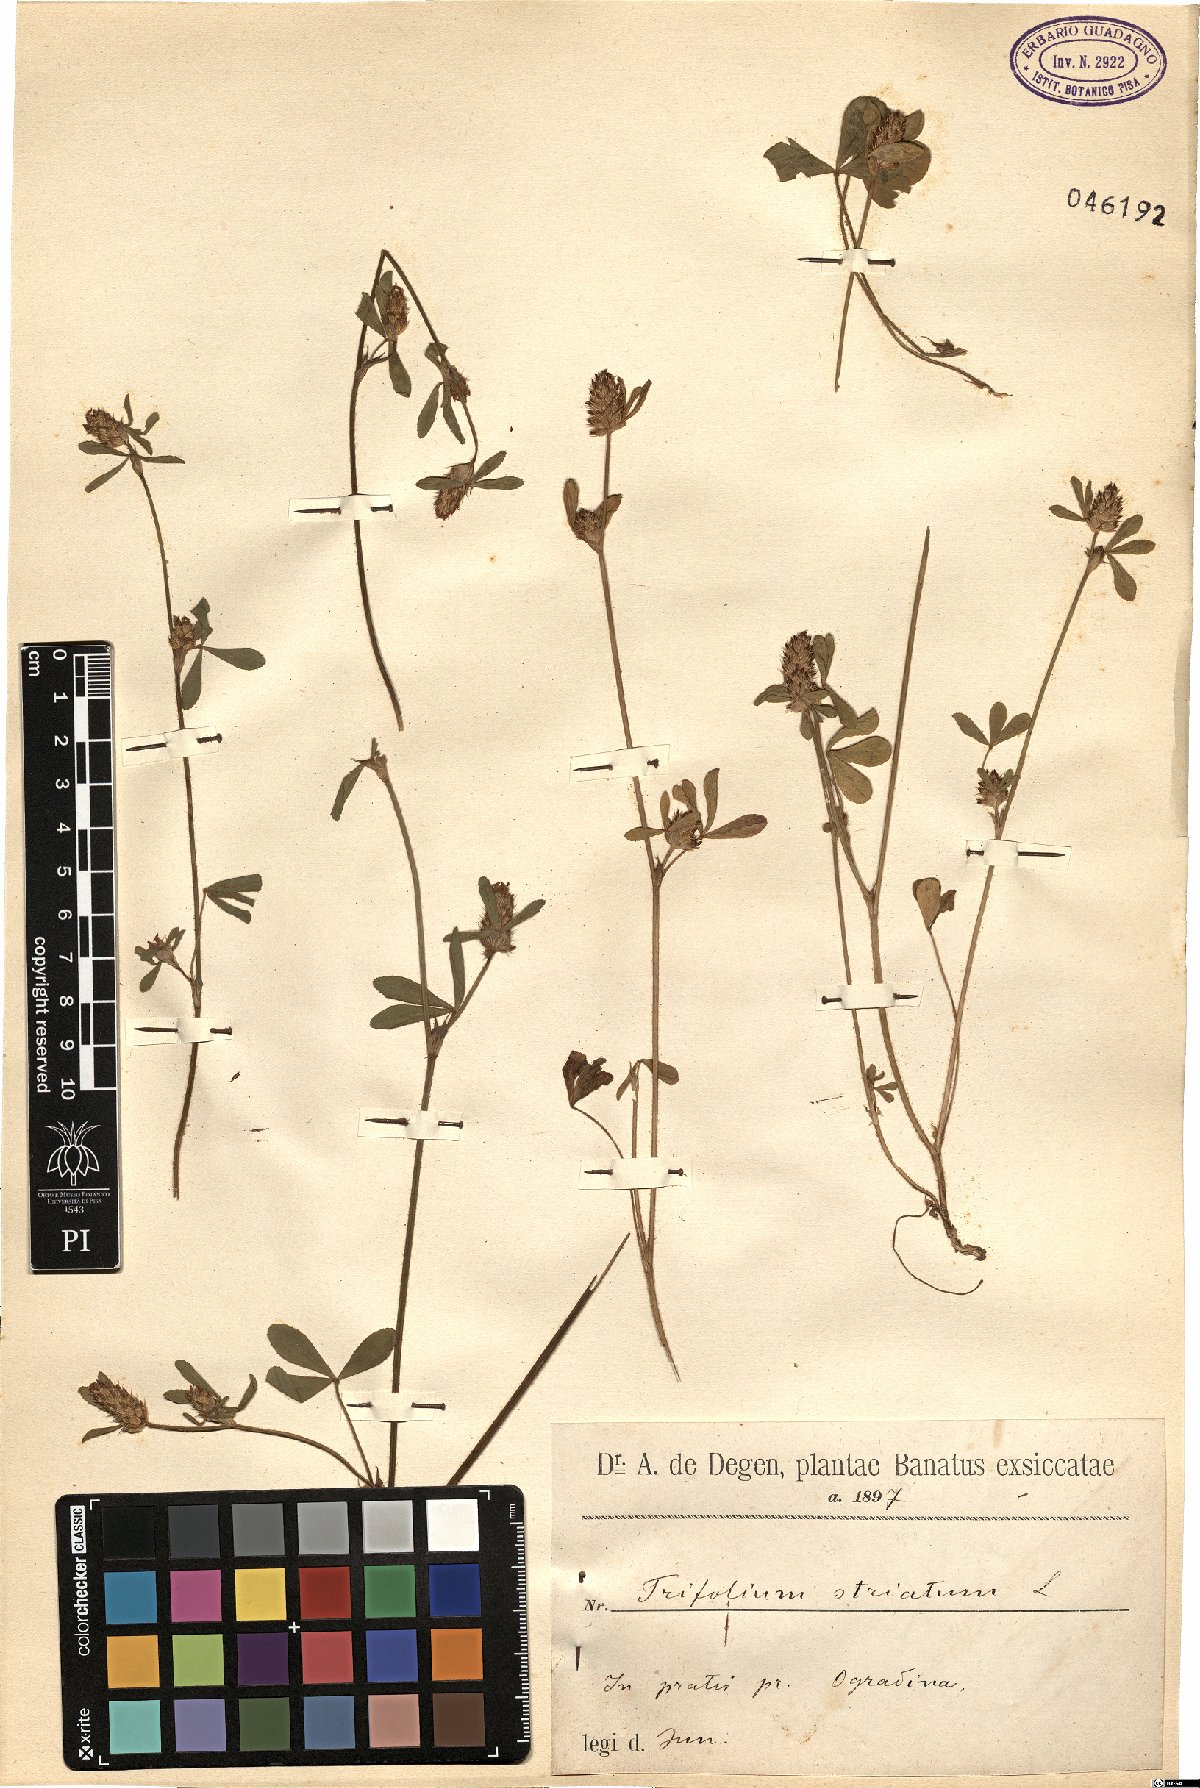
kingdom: Plantae
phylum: Tracheophyta
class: Magnoliopsida
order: Fabales
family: Fabaceae
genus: Trifolium
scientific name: Trifolium striatum
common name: Knotted clover
